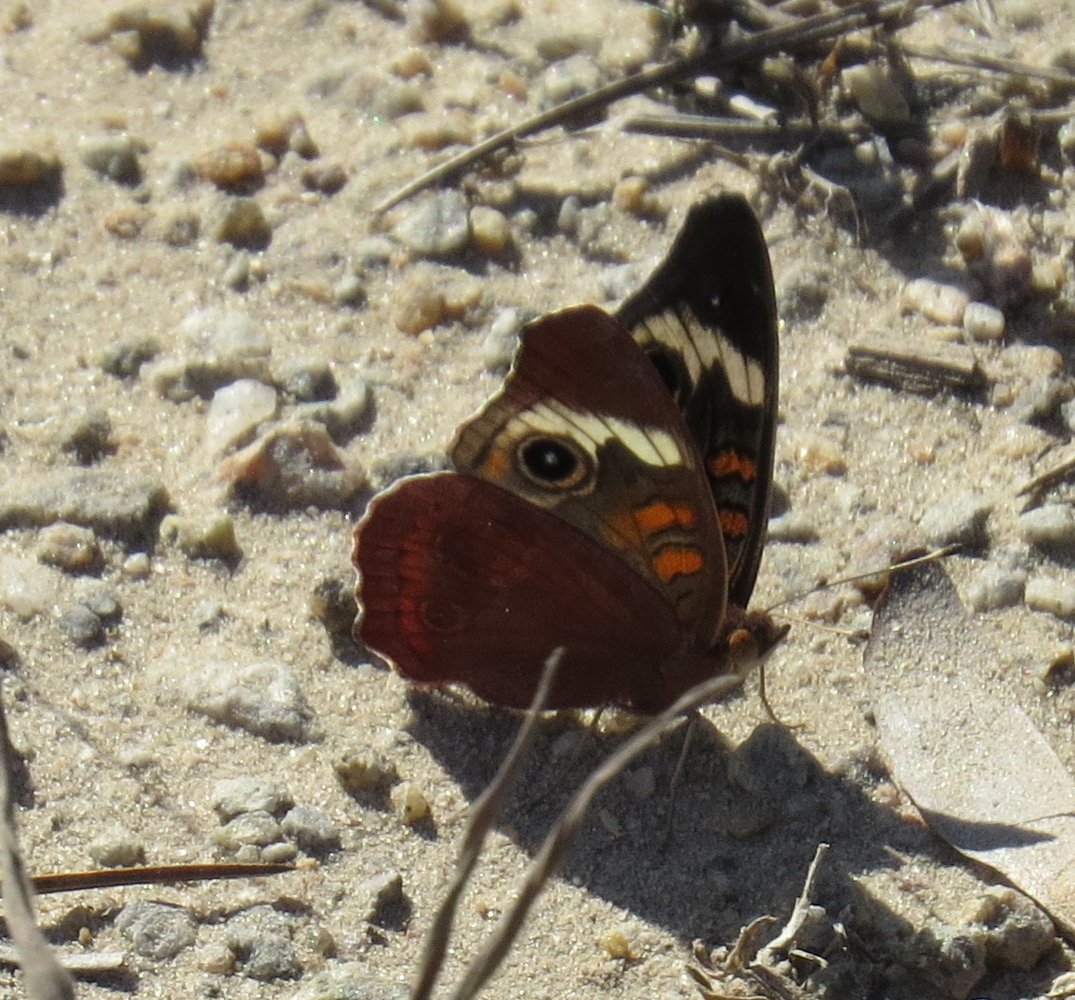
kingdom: Animalia
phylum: Arthropoda
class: Insecta
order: Lepidoptera
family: Nymphalidae
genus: Junonia
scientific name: Junonia coenia
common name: Common Buckeye
